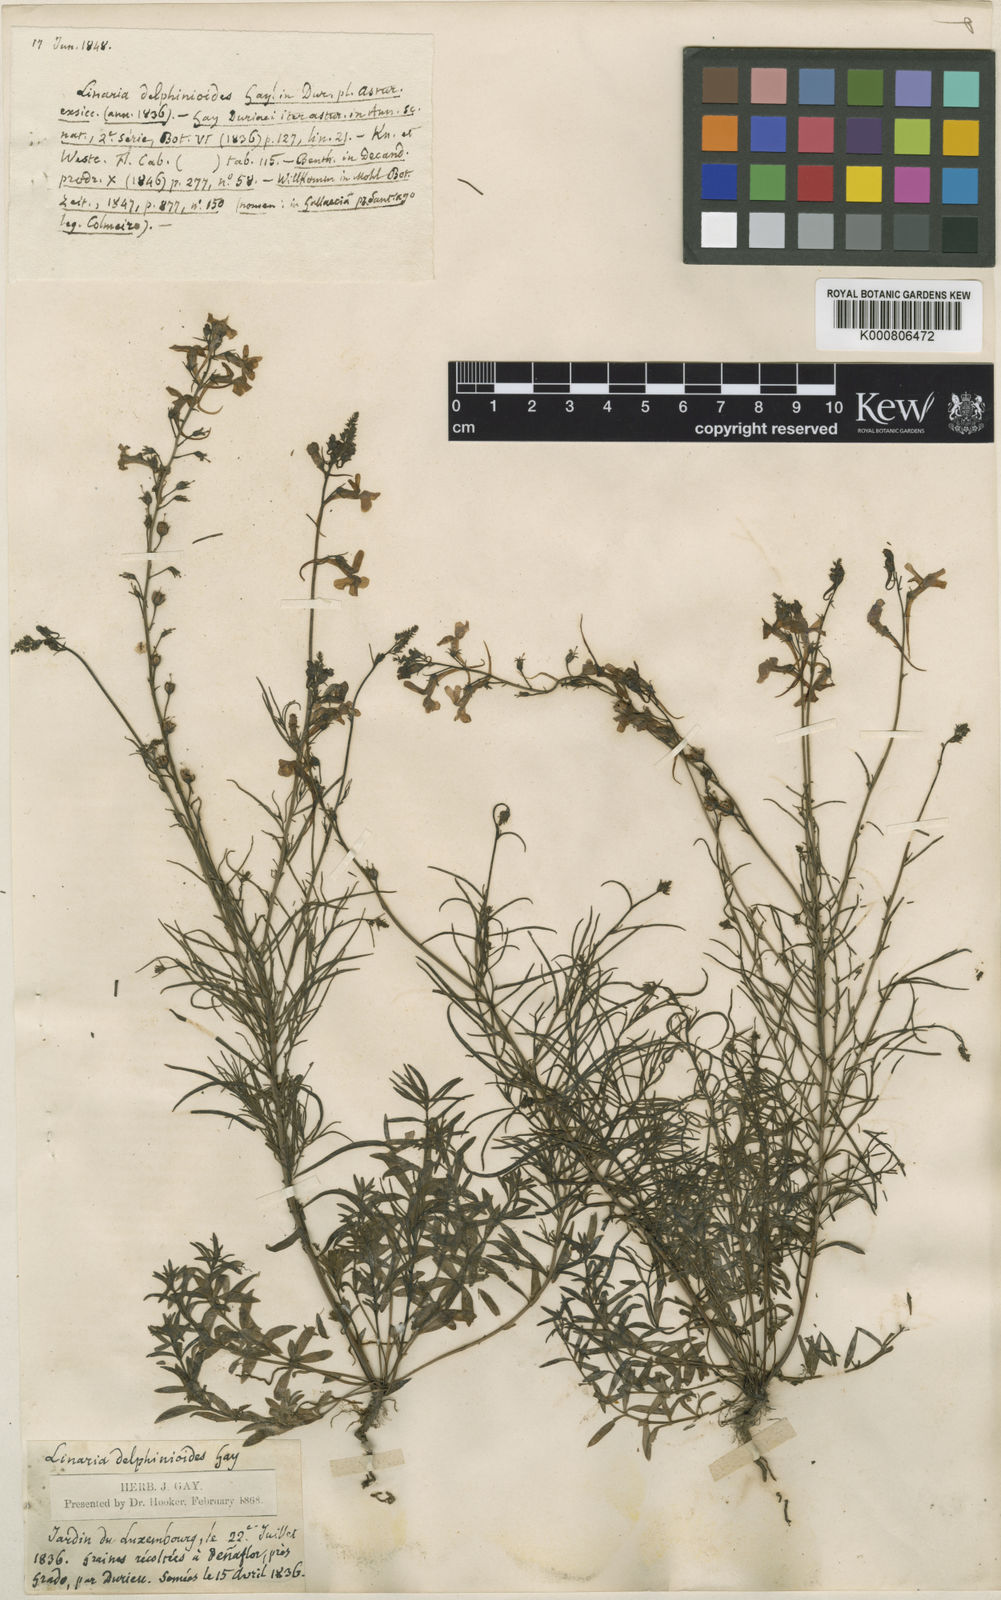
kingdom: Plantae
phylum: Tracheophyta
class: Magnoliopsida
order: Lamiales
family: Plantaginaceae
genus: Linaria
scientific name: Linaria elegans
